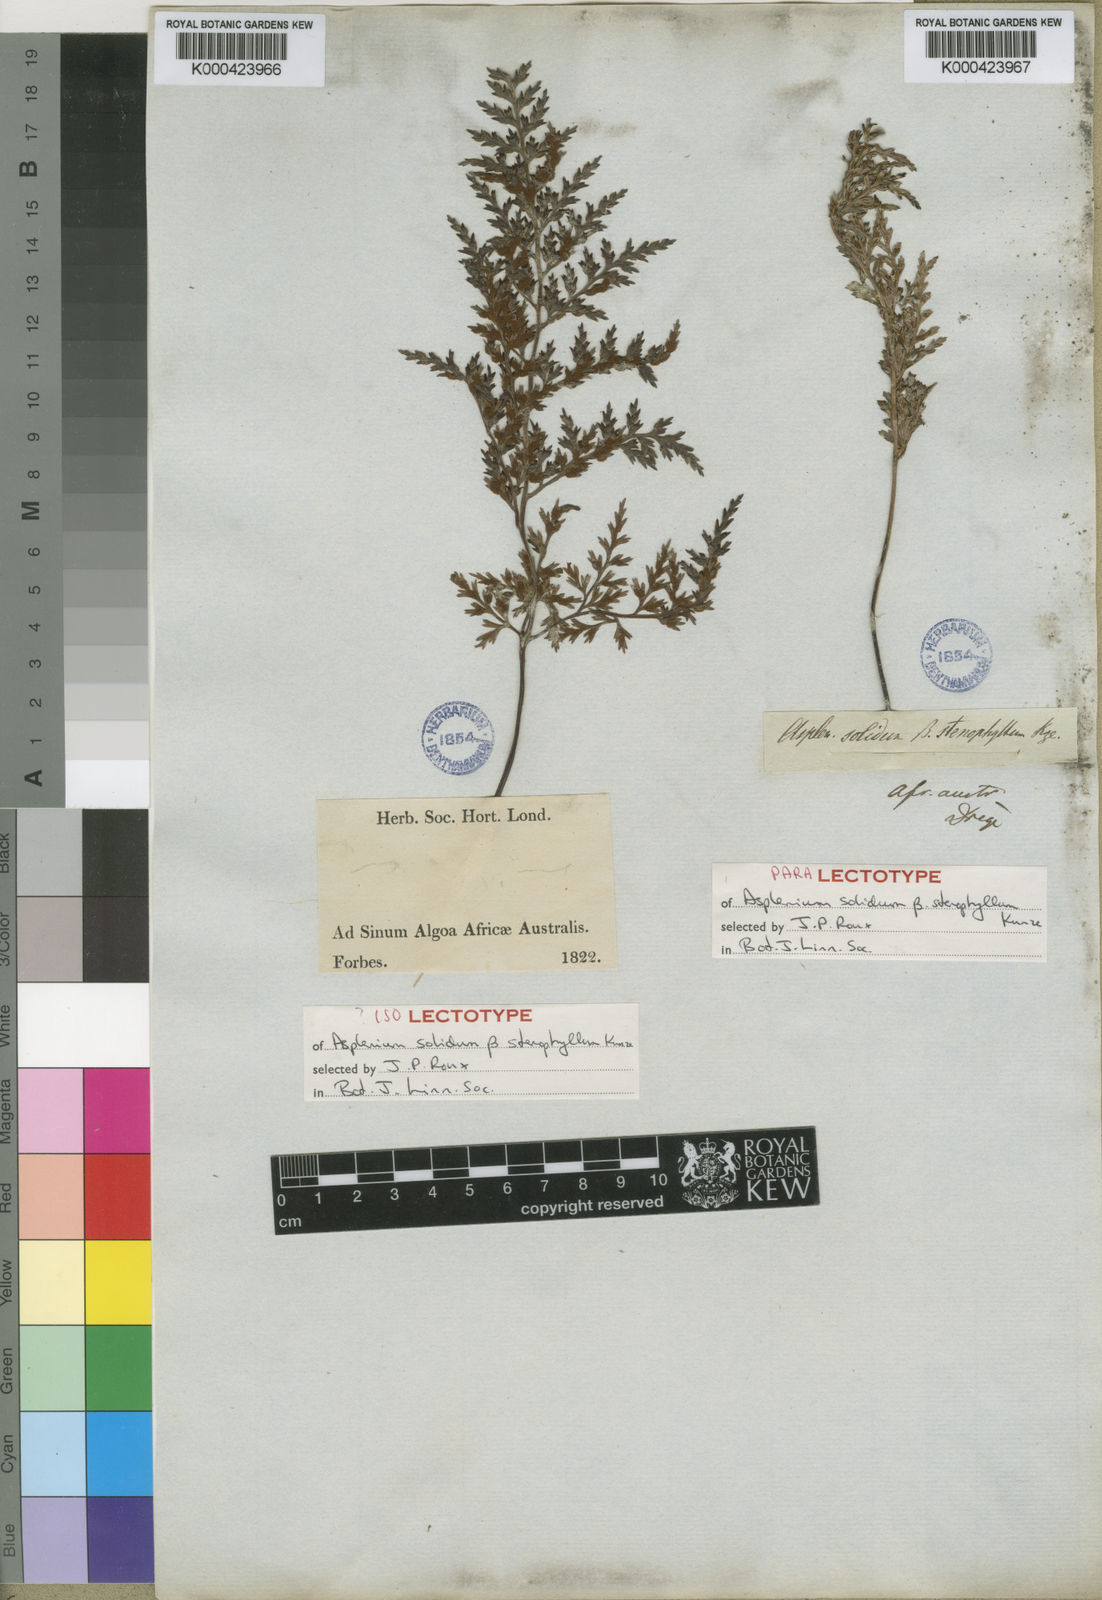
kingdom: Plantae
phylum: Tracheophyta
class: Polypodiopsida
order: Polypodiales
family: Aspleniaceae
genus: Asplenium
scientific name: Asplenium adiantum-nigrum
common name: Black spleenwort
